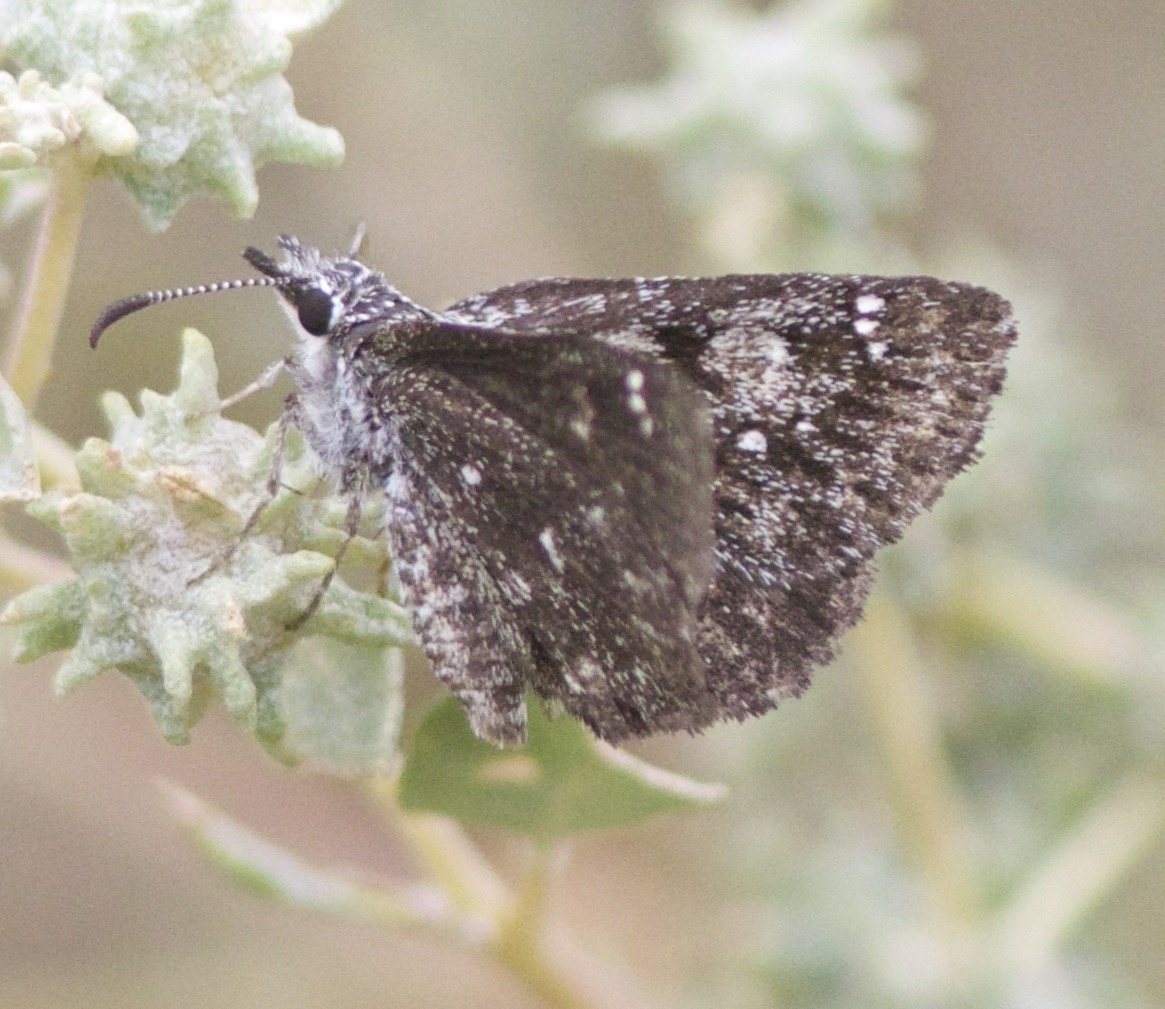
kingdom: Animalia
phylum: Arthropoda
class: Insecta
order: Lepidoptera
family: Hesperiidae
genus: Hesperopsis
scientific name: Hesperopsis alpheus
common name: Saltbush Sootywing
